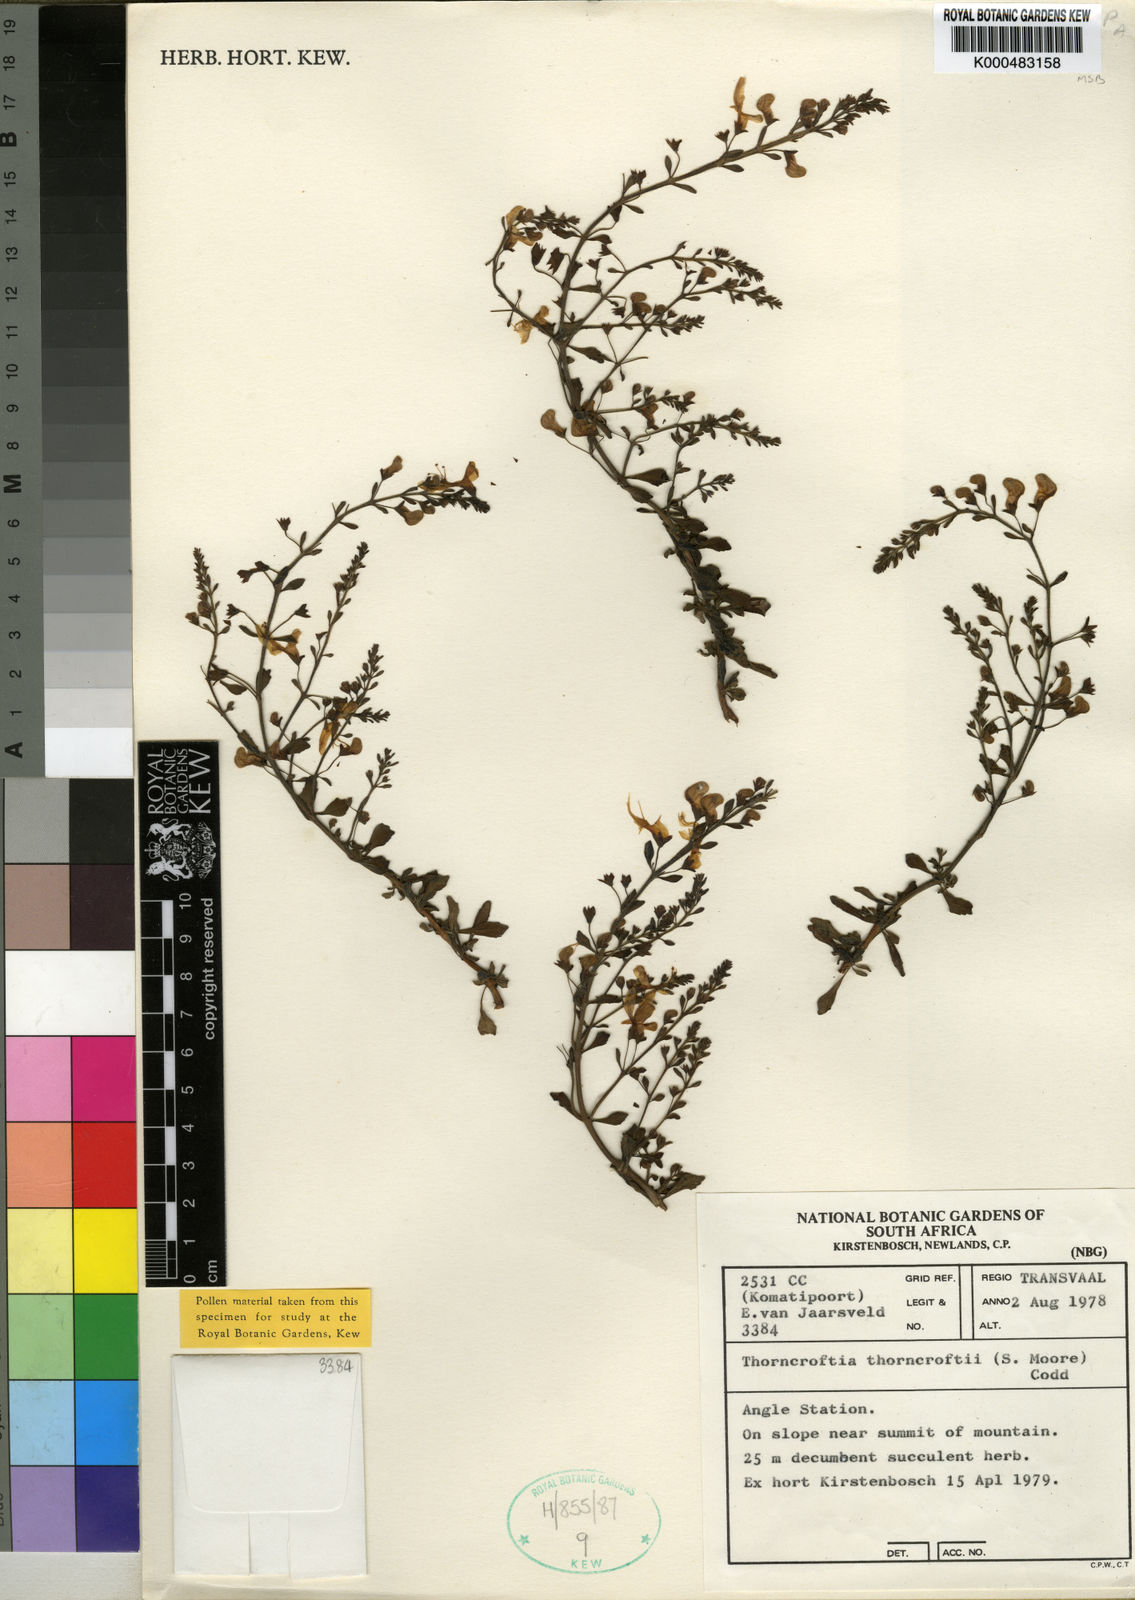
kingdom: Plantae
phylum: Tracheophyta
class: Magnoliopsida
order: Lamiales
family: Lamiaceae
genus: Thorncroftia
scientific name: Thorncroftia media
